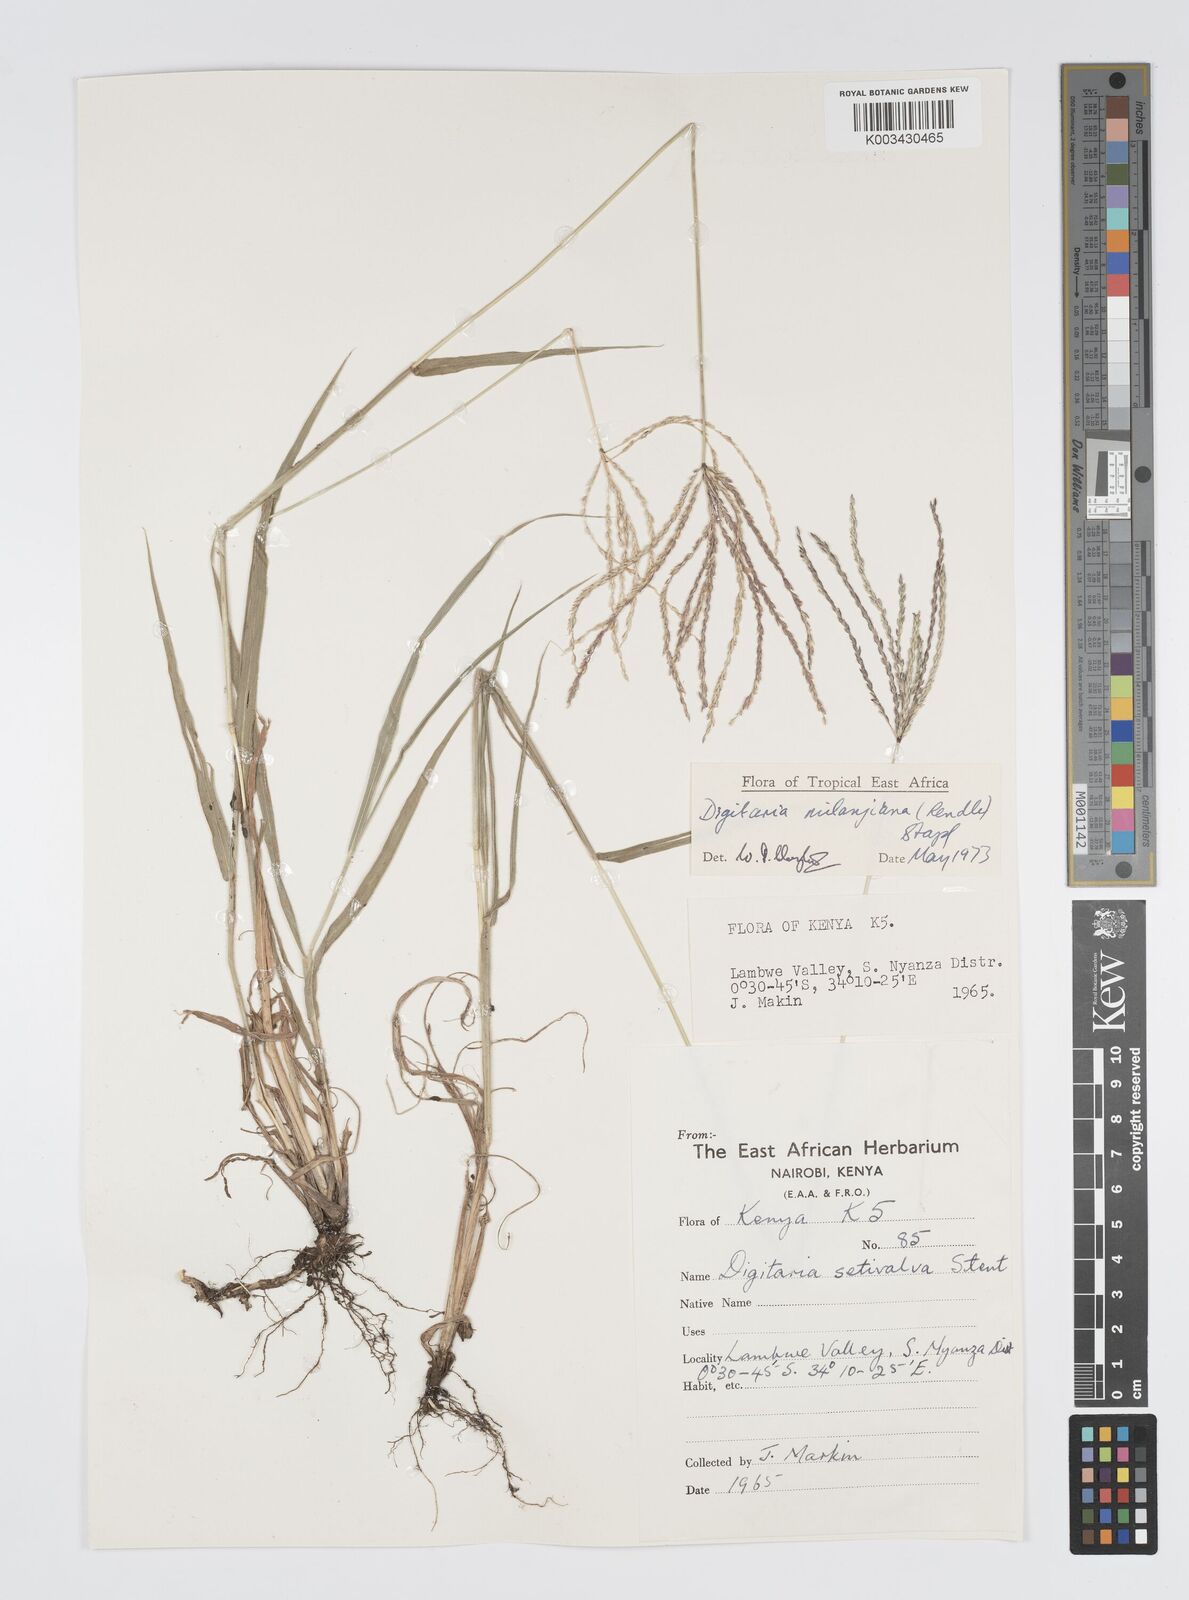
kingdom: Plantae
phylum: Tracheophyta
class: Liliopsida
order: Poales
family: Poaceae
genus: Digitaria
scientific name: Digitaria milanjiana
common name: Madagascar crabgrass
